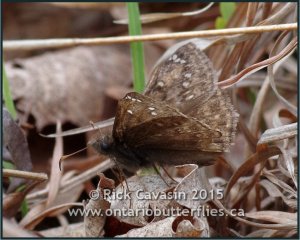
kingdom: Animalia
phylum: Arthropoda
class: Insecta
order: Lepidoptera
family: Hesperiidae
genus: Gesta
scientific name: Gesta
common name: Juvenal's Duskywing
